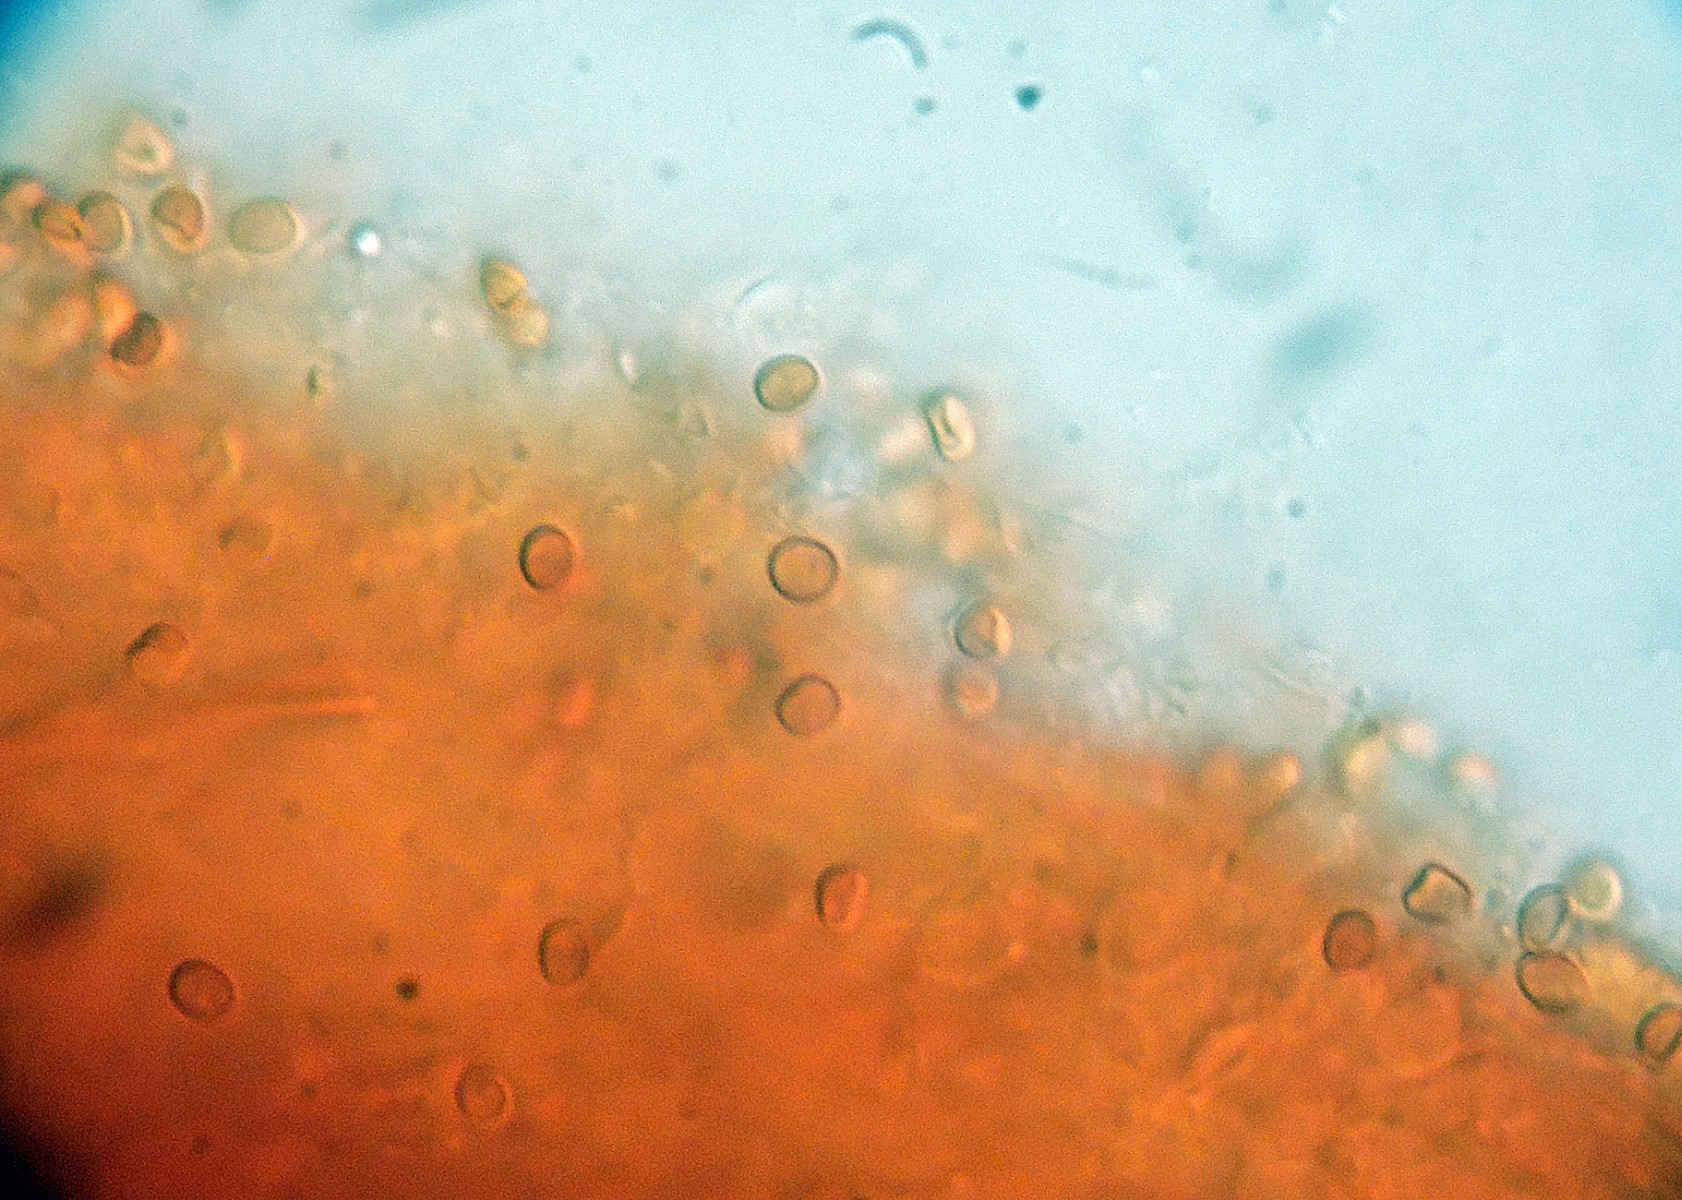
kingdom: Fungi
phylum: Basidiomycota
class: Agaricomycetes
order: Hymenochaetales
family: Hymenochaetaceae
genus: Phylloporia
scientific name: Phylloporia ribis
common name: ribs-ildporesvamp
